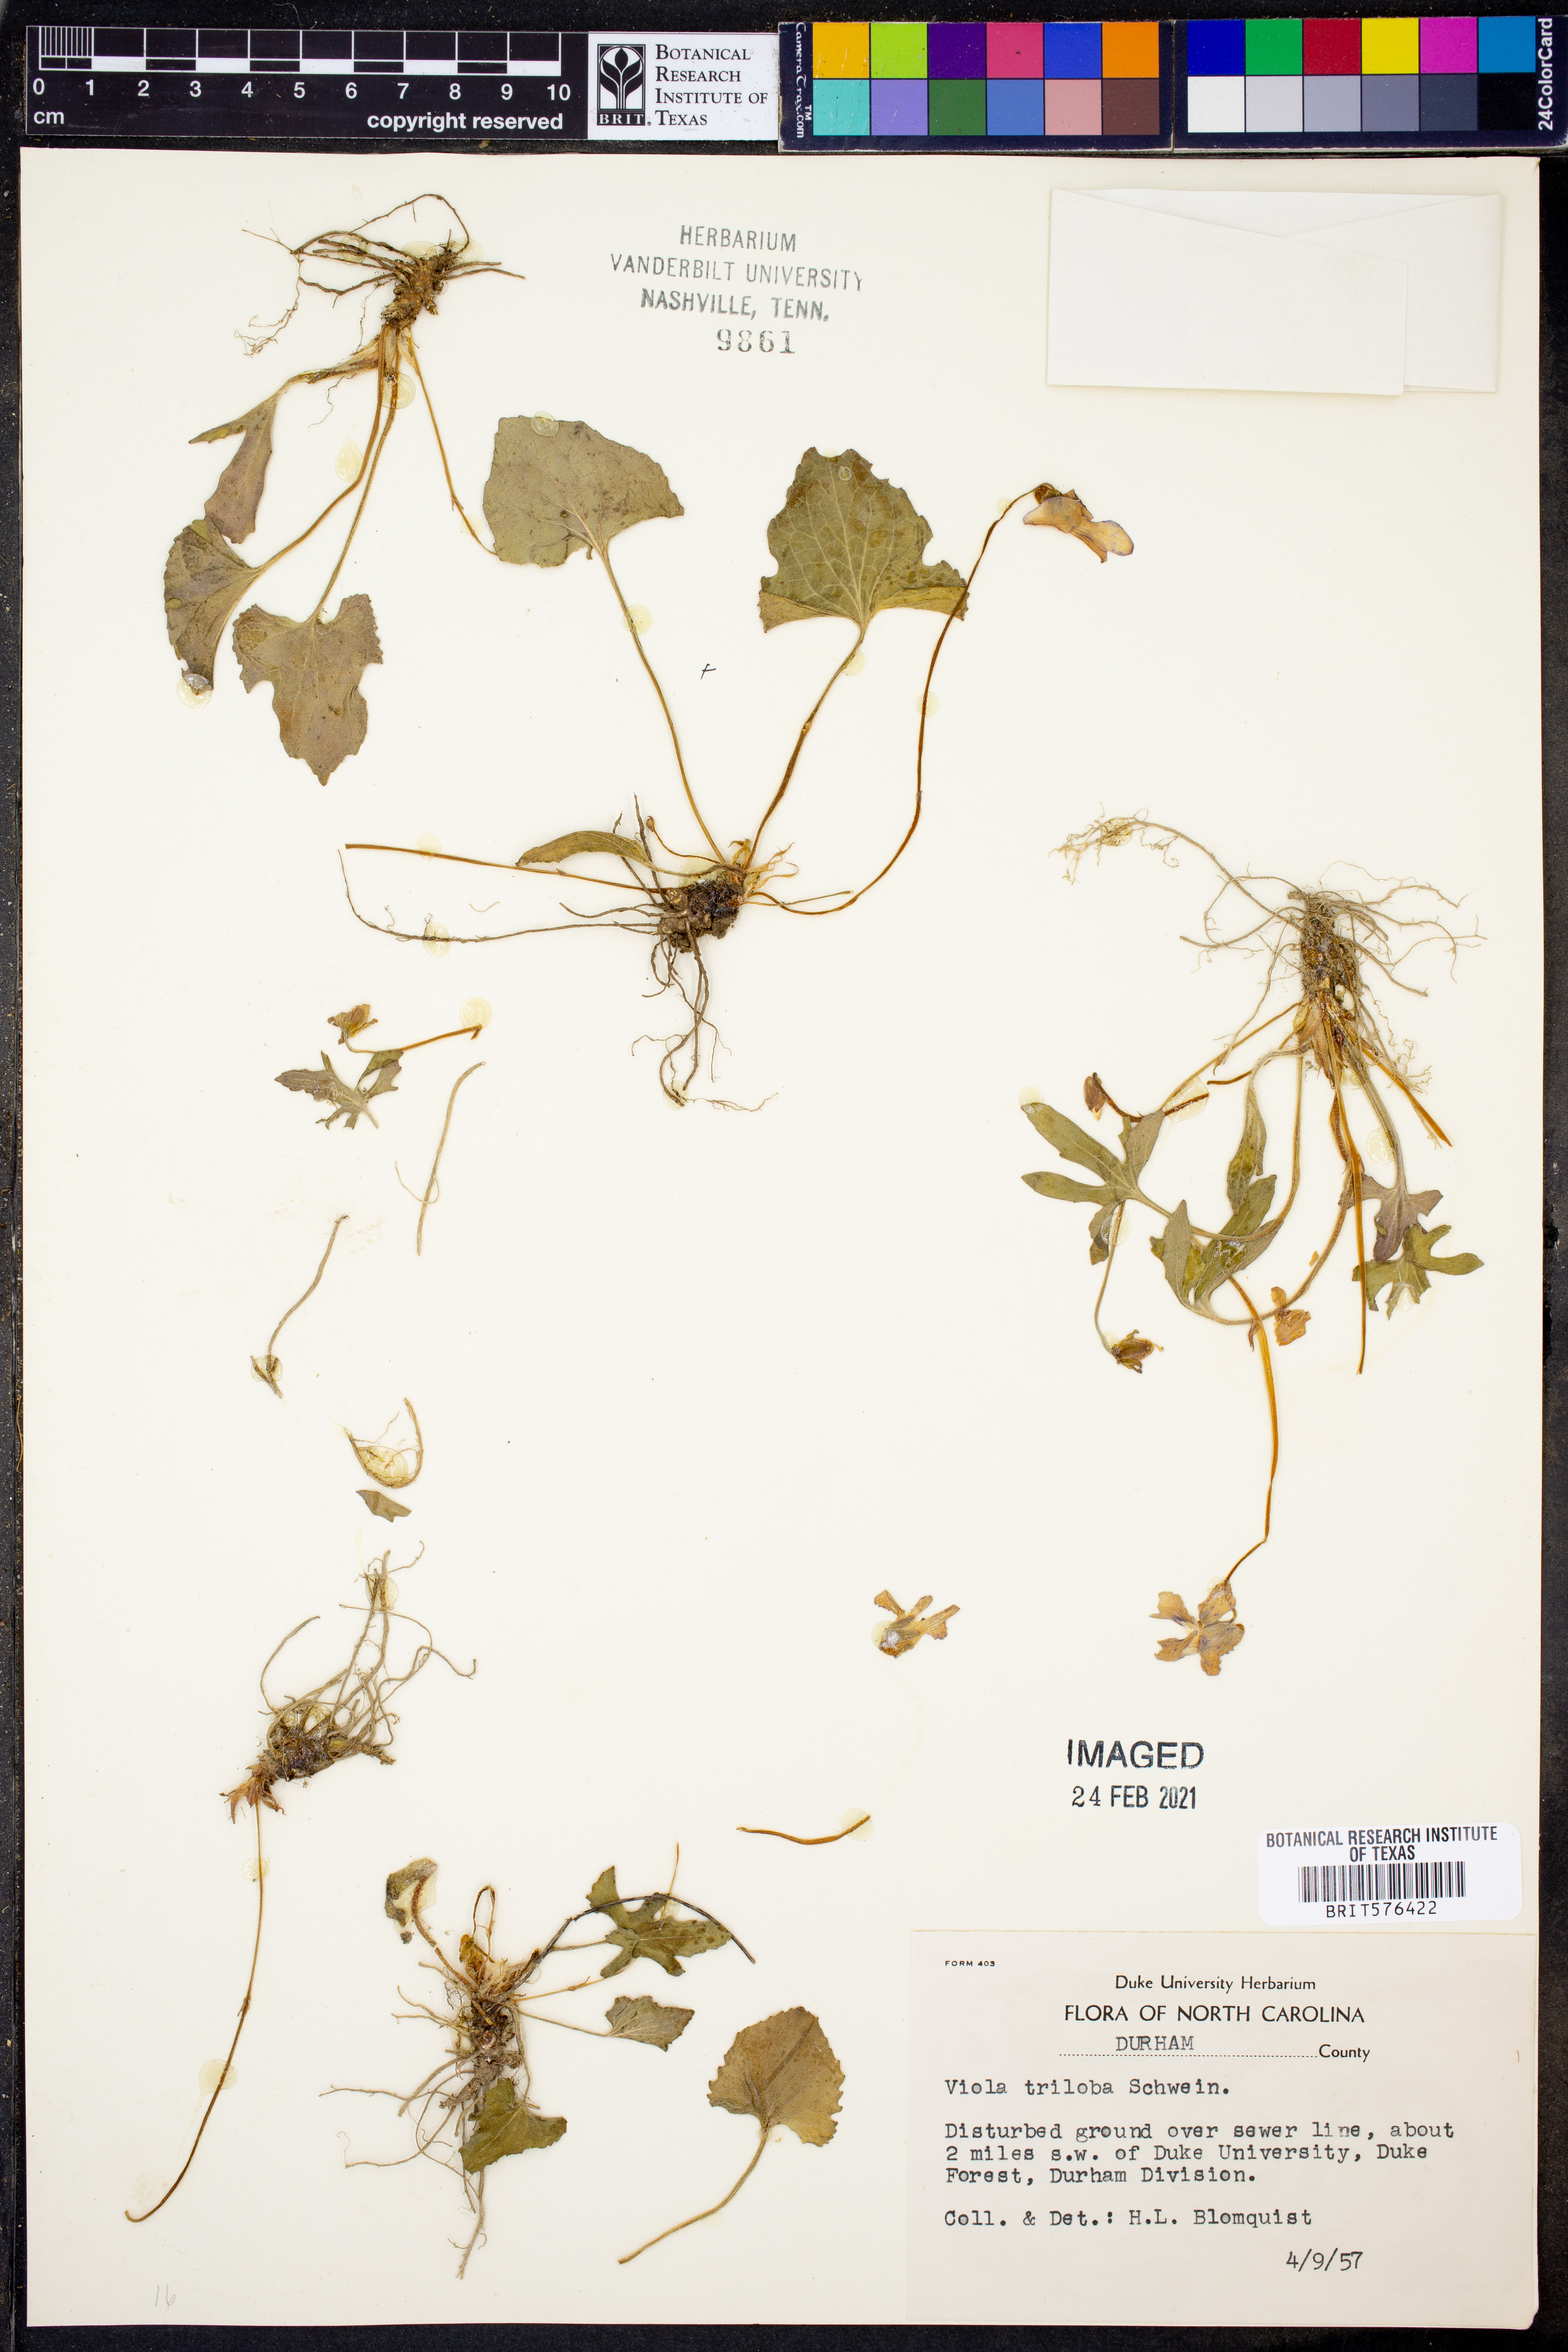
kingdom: Plantae
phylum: Tracheophyta
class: Magnoliopsida
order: Malpighiales
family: Violaceae
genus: Viola
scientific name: Viola palmata
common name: Early blue violet
